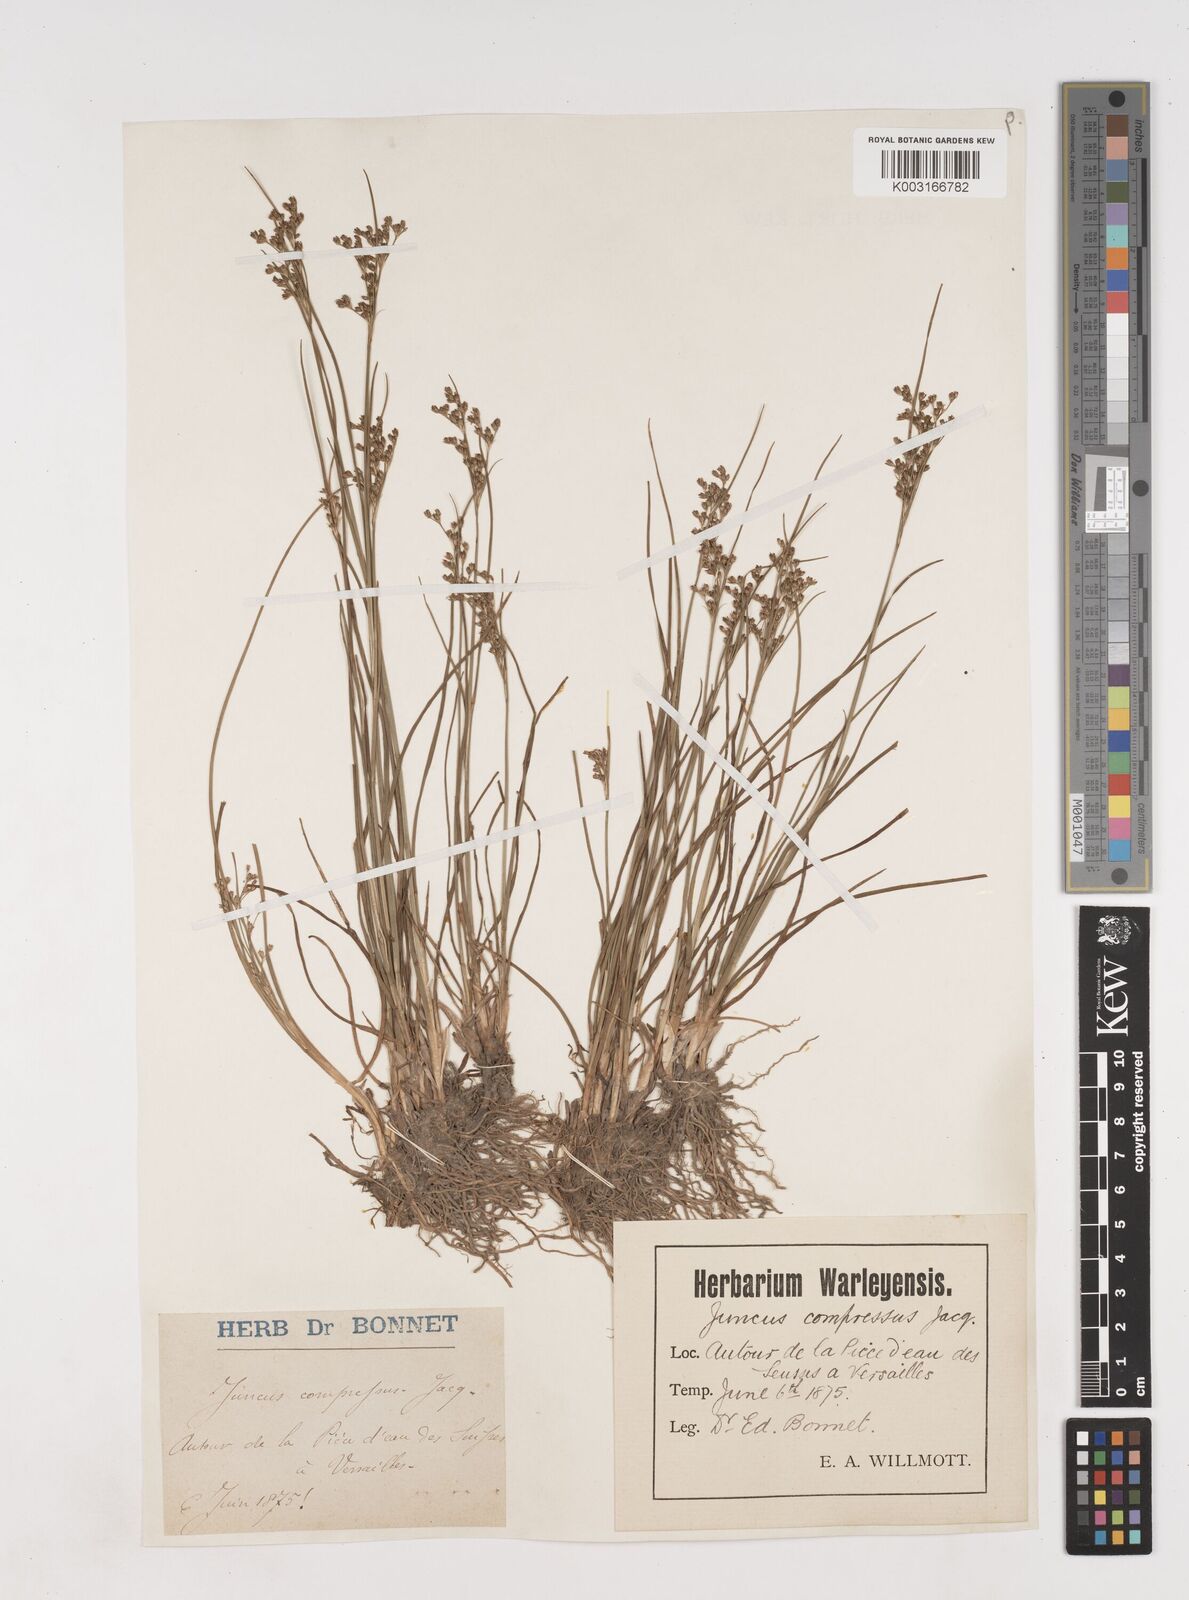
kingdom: Plantae
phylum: Tracheophyta
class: Liliopsida
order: Poales
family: Juncaceae
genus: Juncus
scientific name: Juncus compressus
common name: Round-fruited rush
